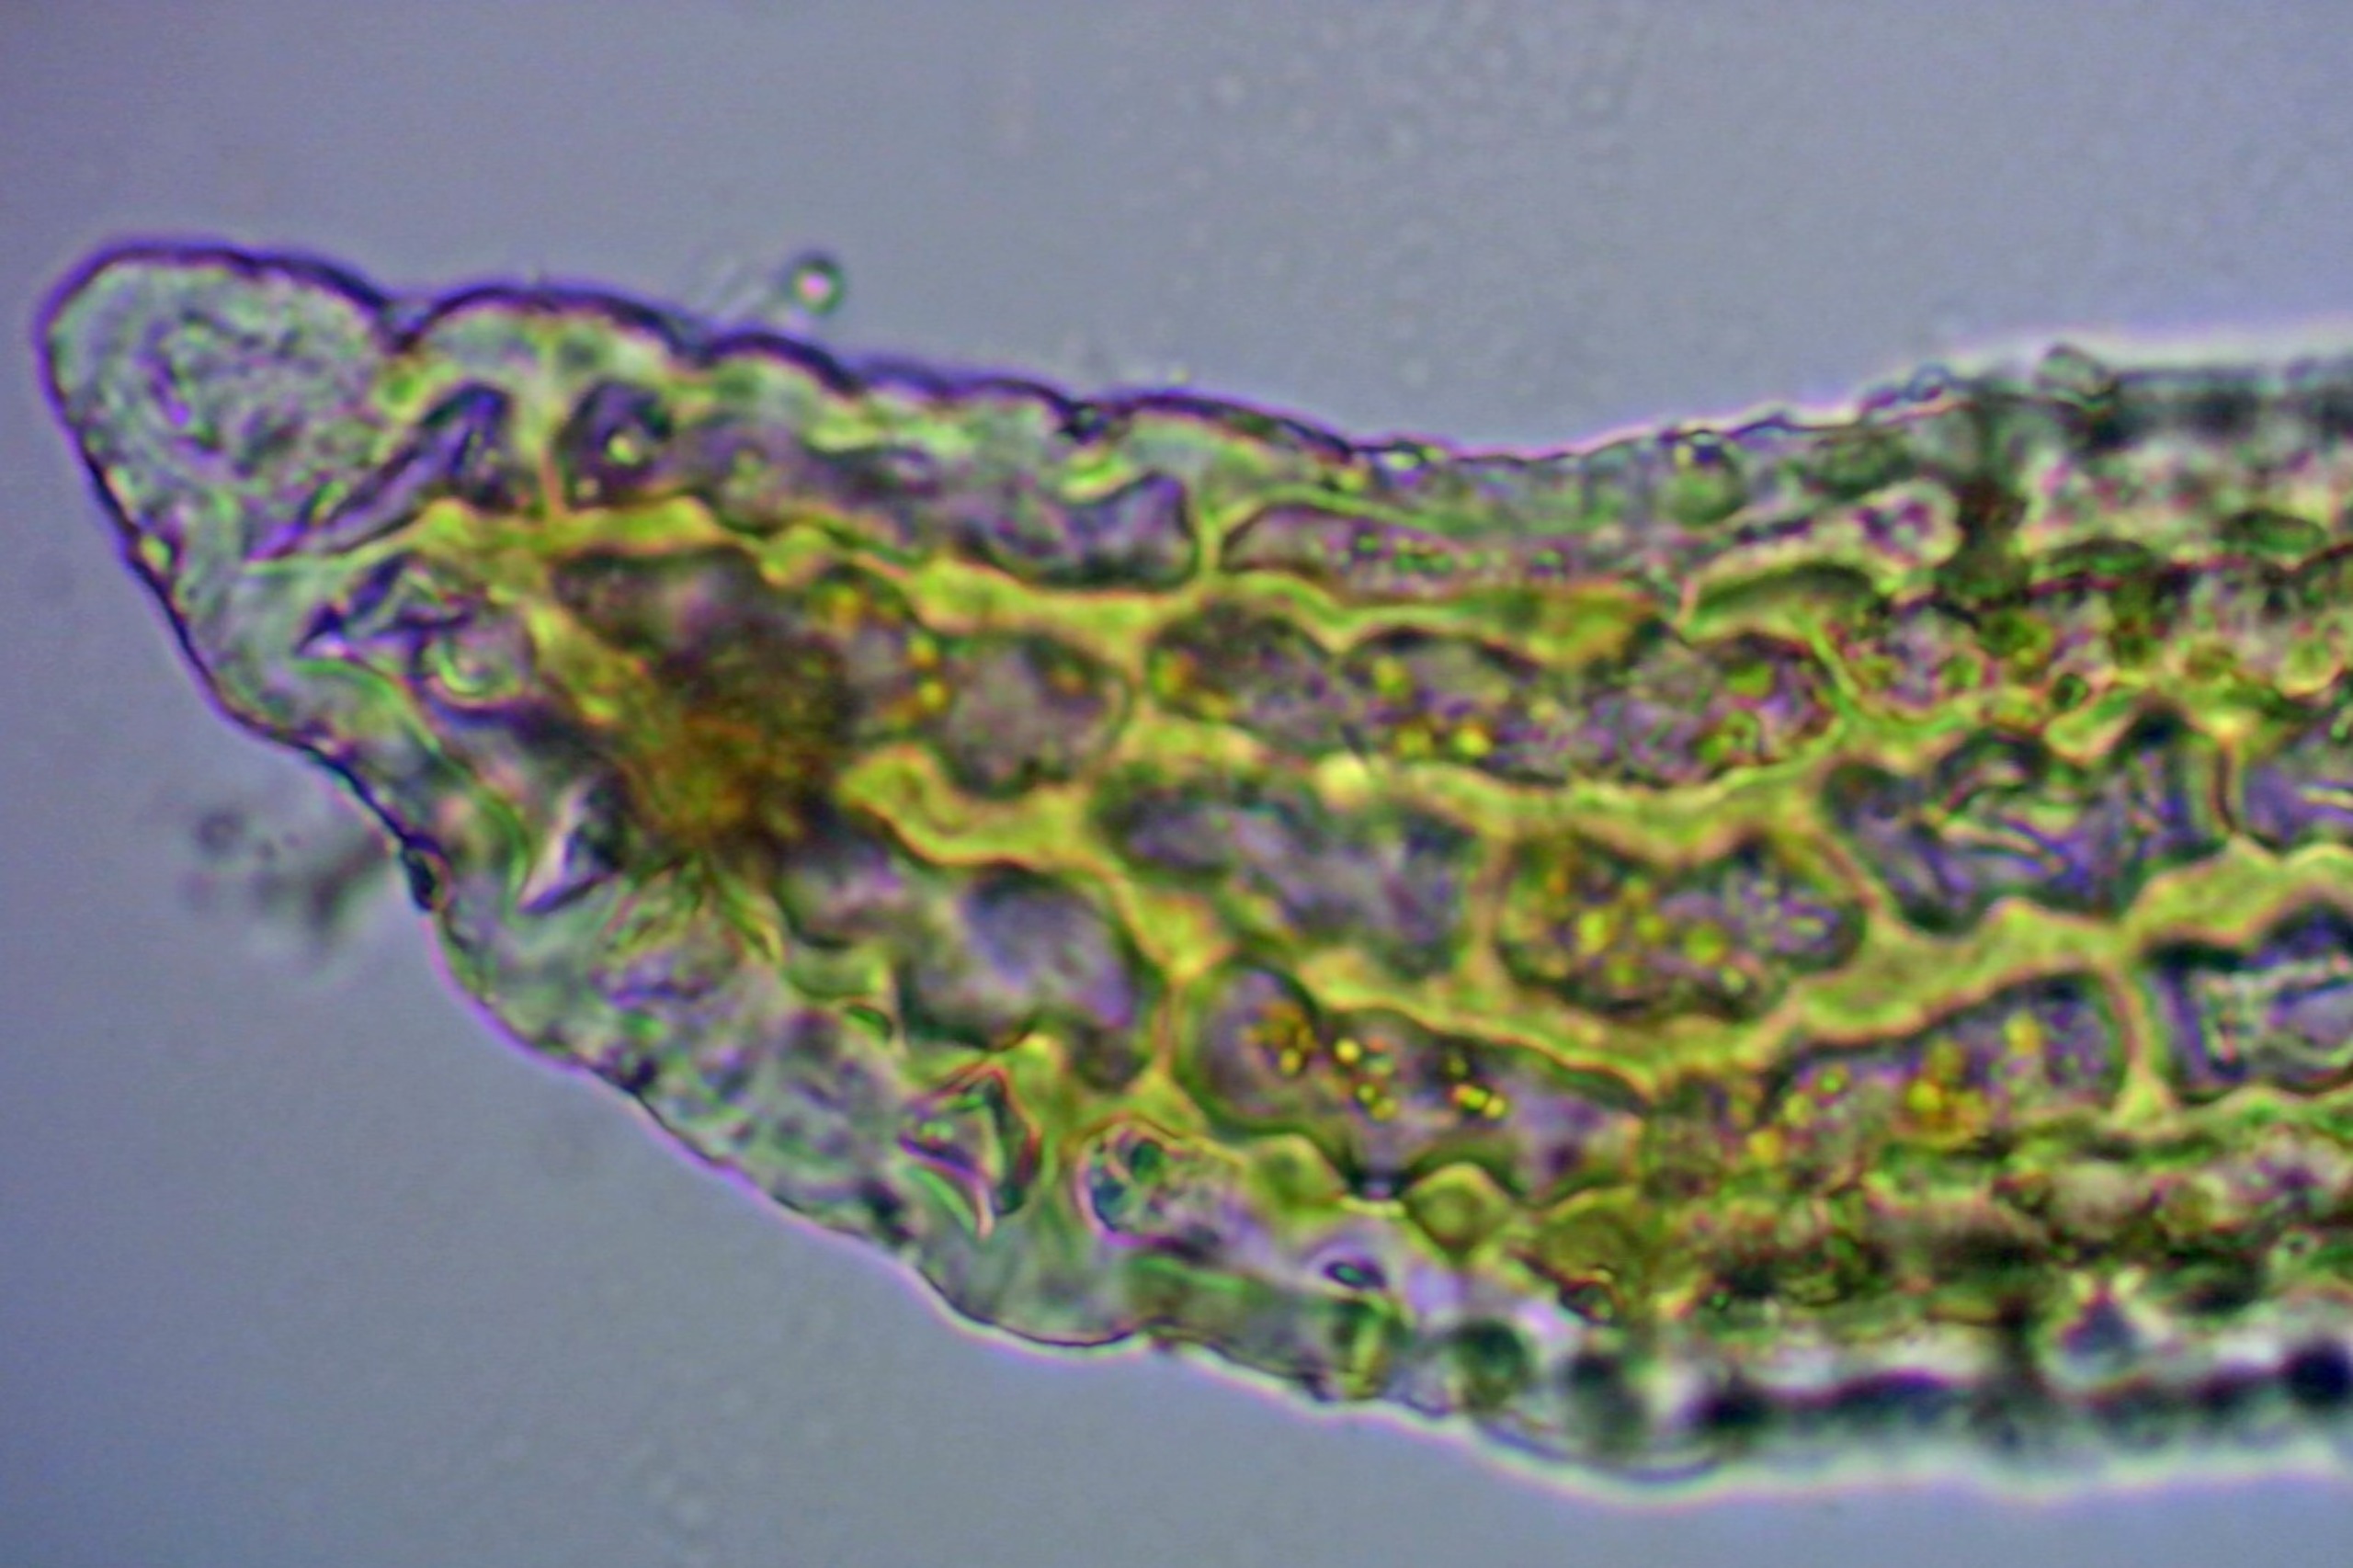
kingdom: Plantae
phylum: Bryophyta
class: Bryopsida
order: Grimmiales
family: Grimmiaceae
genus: Dilutineuron
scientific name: Dilutineuron fasciculare
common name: Knippe-børstemos
